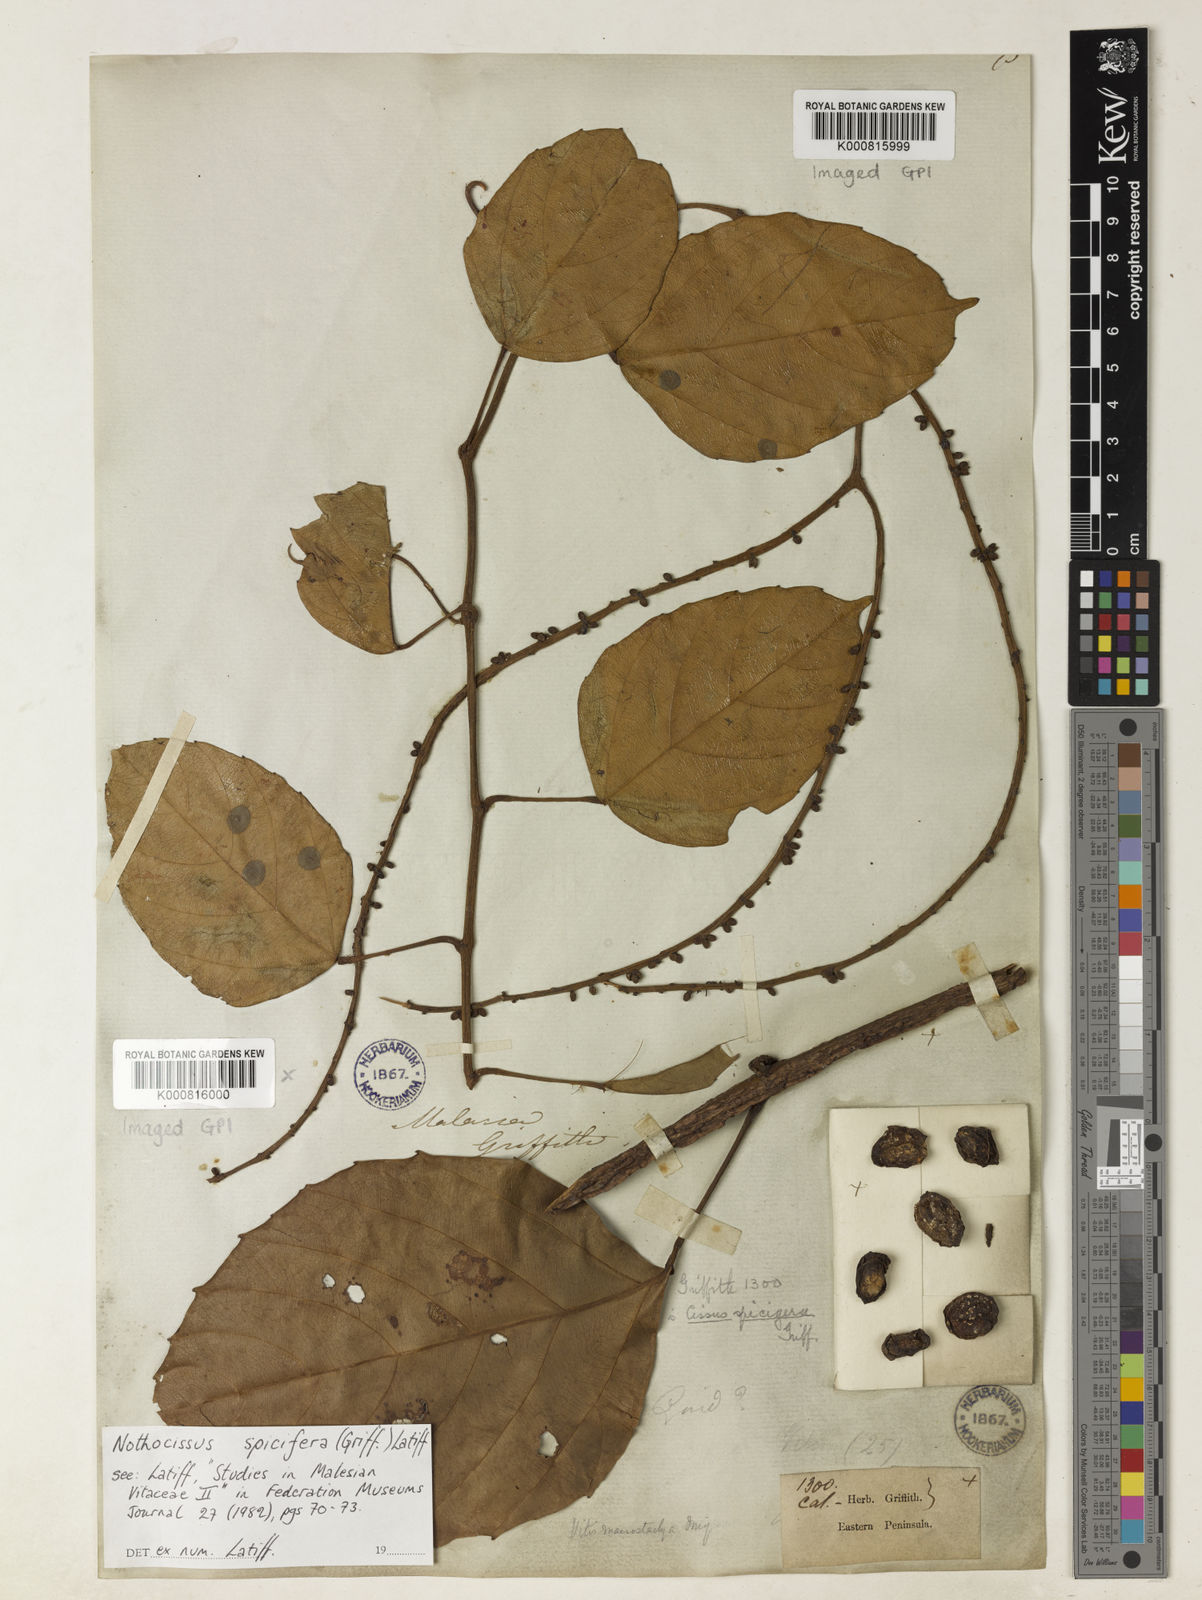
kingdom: Plantae
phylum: Tracheophyta
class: Magnoliopsida
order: Vitales
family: Vitaceae
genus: Nothocissus
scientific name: Nothocissus spicifera
